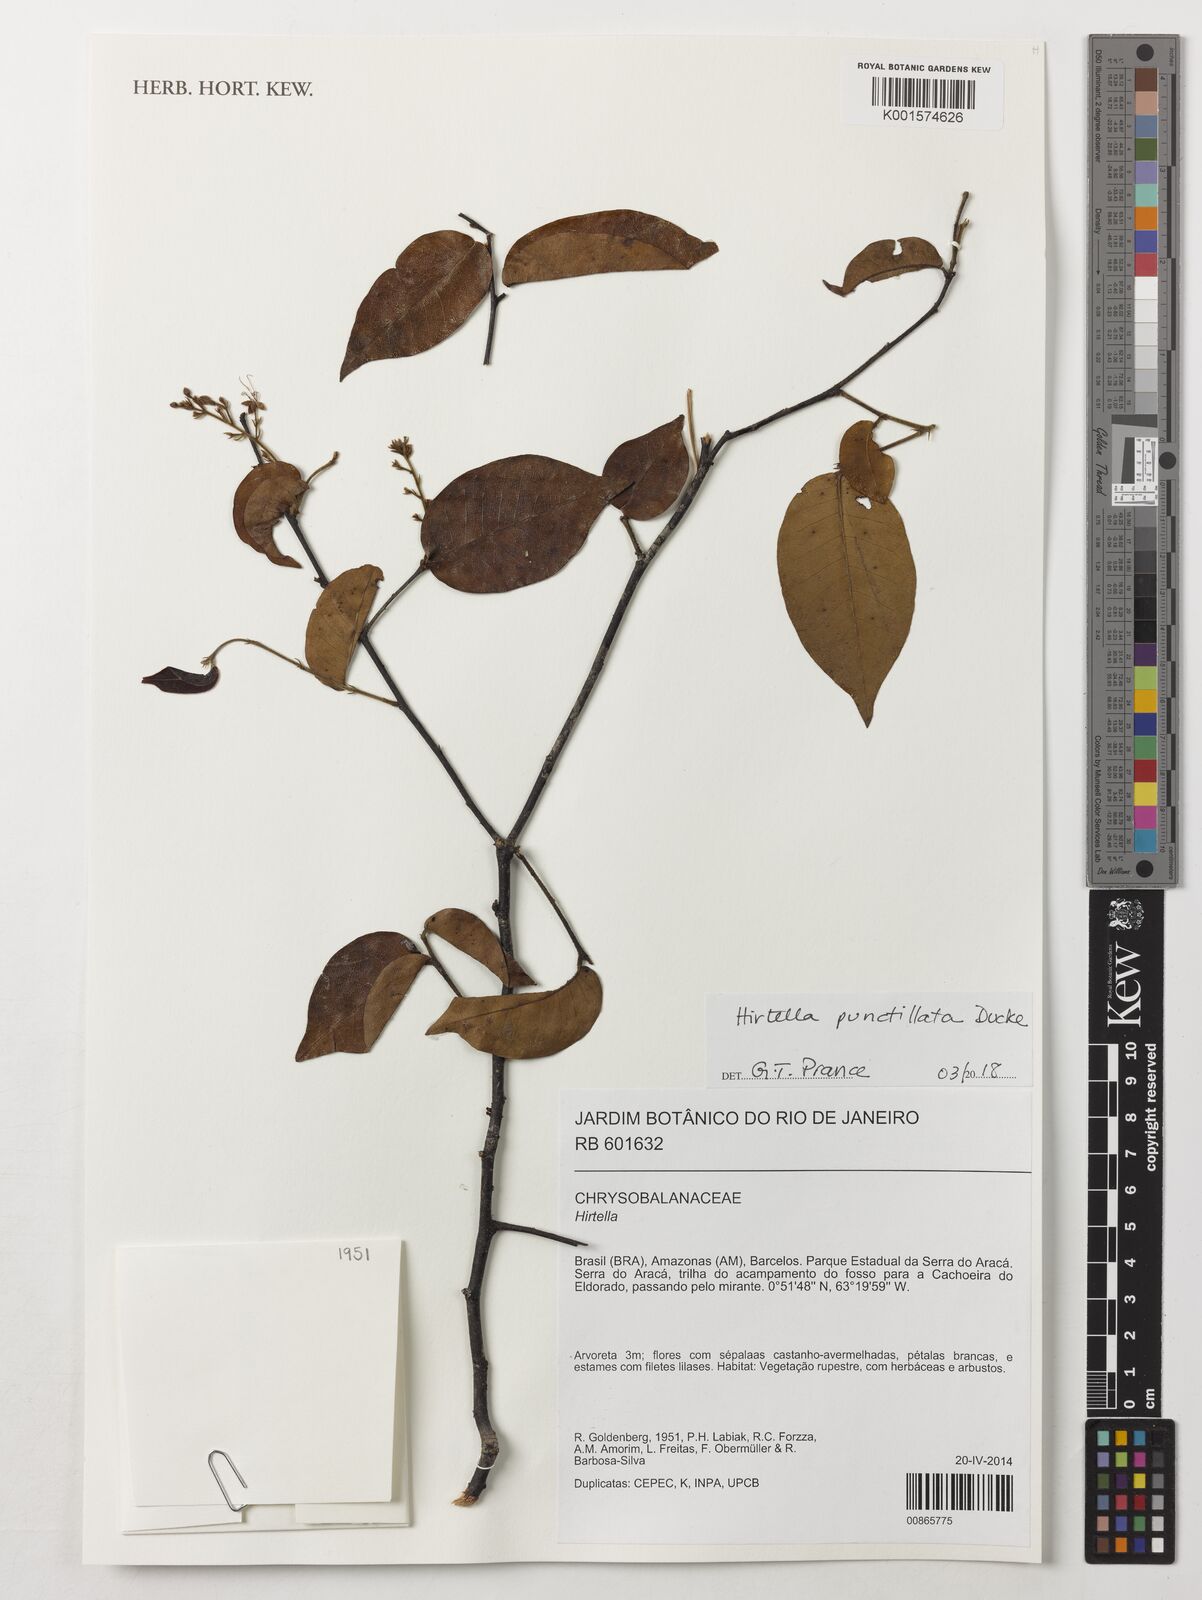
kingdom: Plantae
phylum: Tracheophyta
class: Magnoliopsida
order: Malpighiales
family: Chrysobalanaceae
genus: Hirtella
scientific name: Hirtella punctillata
